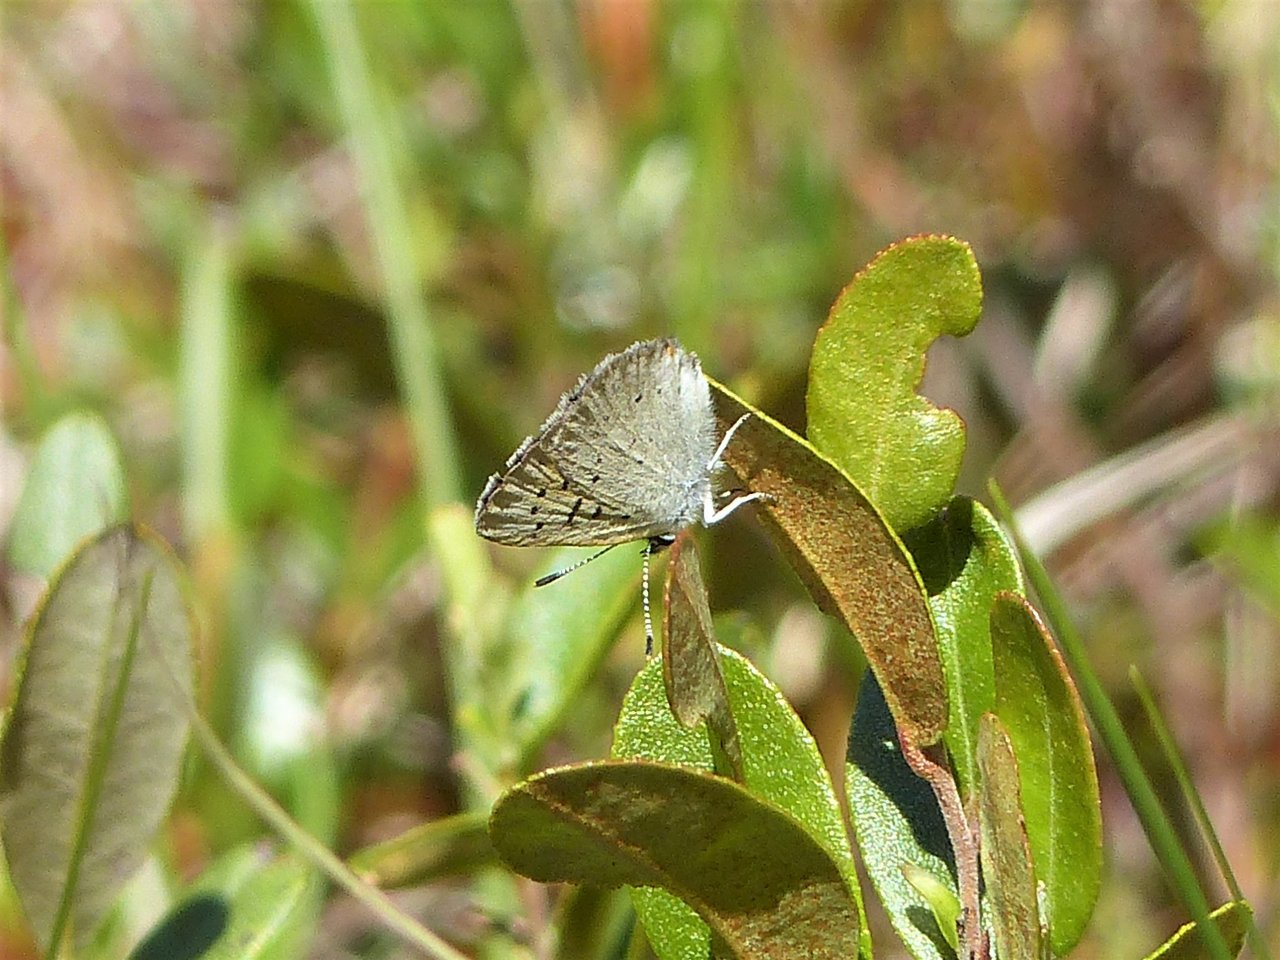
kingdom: Animalia
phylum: Arthropoda
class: Insecta
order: Lepidoptera
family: Sesiidae
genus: Sesia
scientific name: Sesia Lycaena epixanthe
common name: Bog Copper
